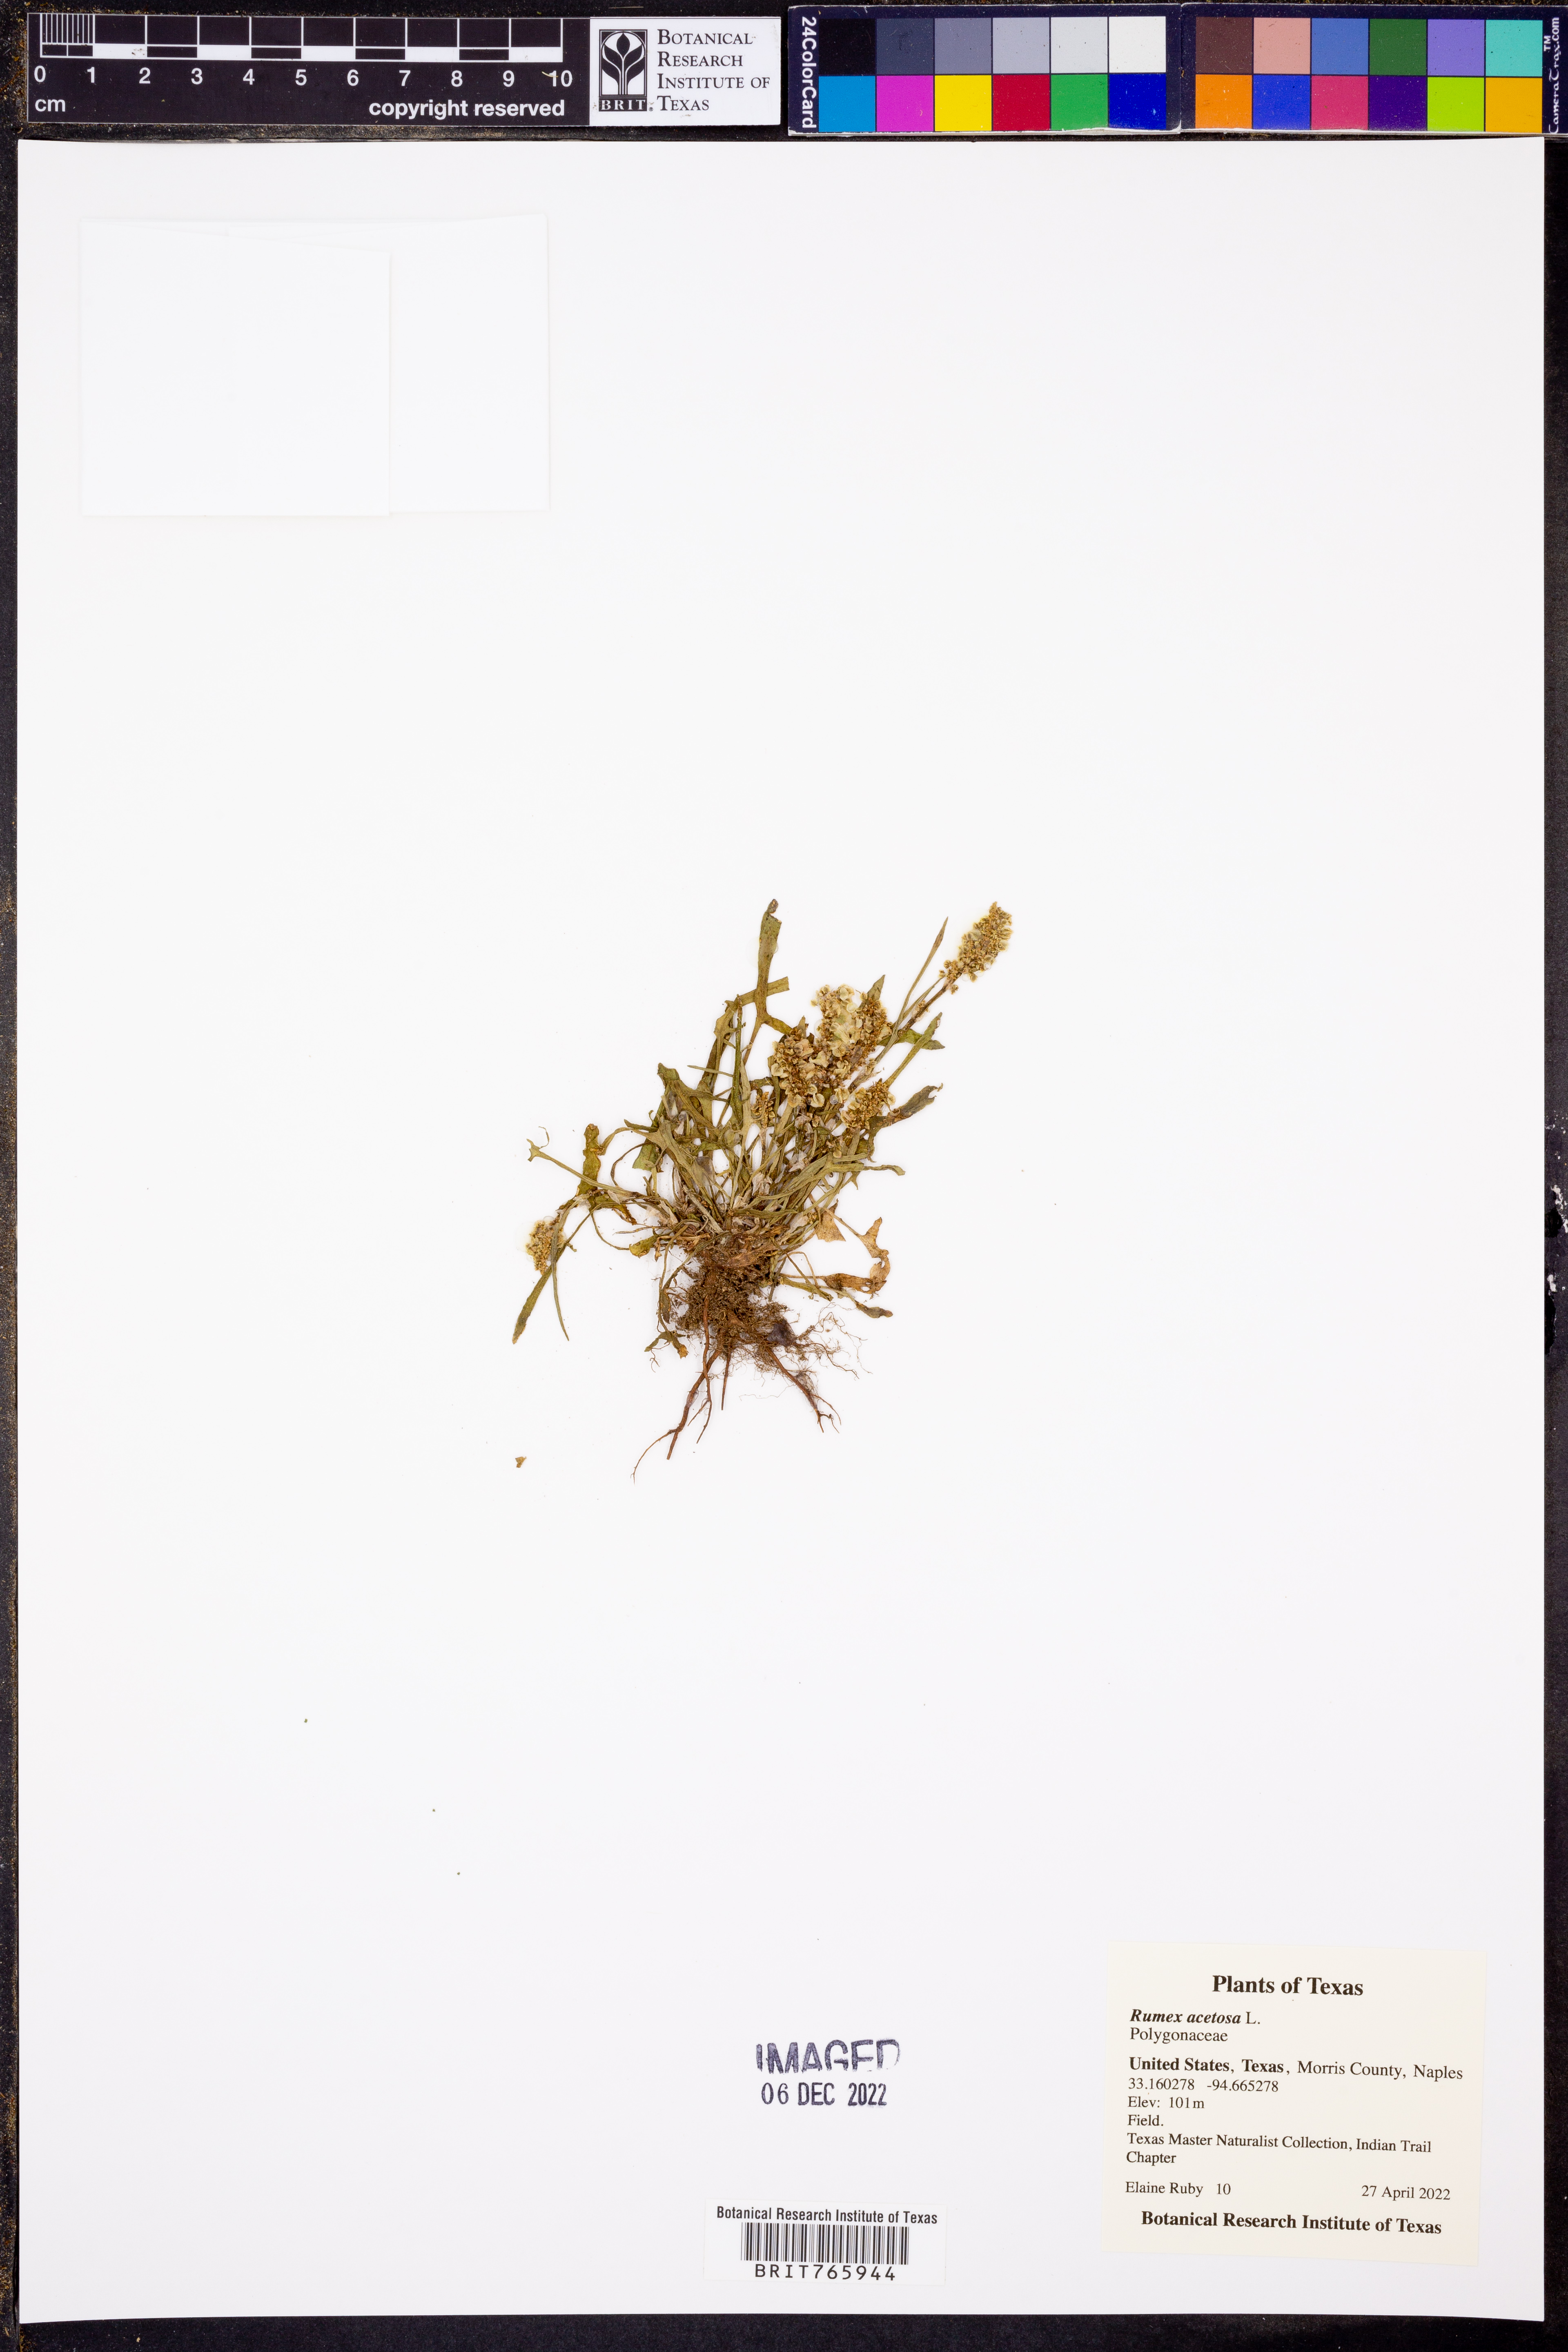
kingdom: Plantae
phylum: Tracheophyta
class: Magnoliopsida
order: Caryophyllales
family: Polygonaceae
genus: Rumex
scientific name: Rumex acetosa
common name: Garden sorrel
